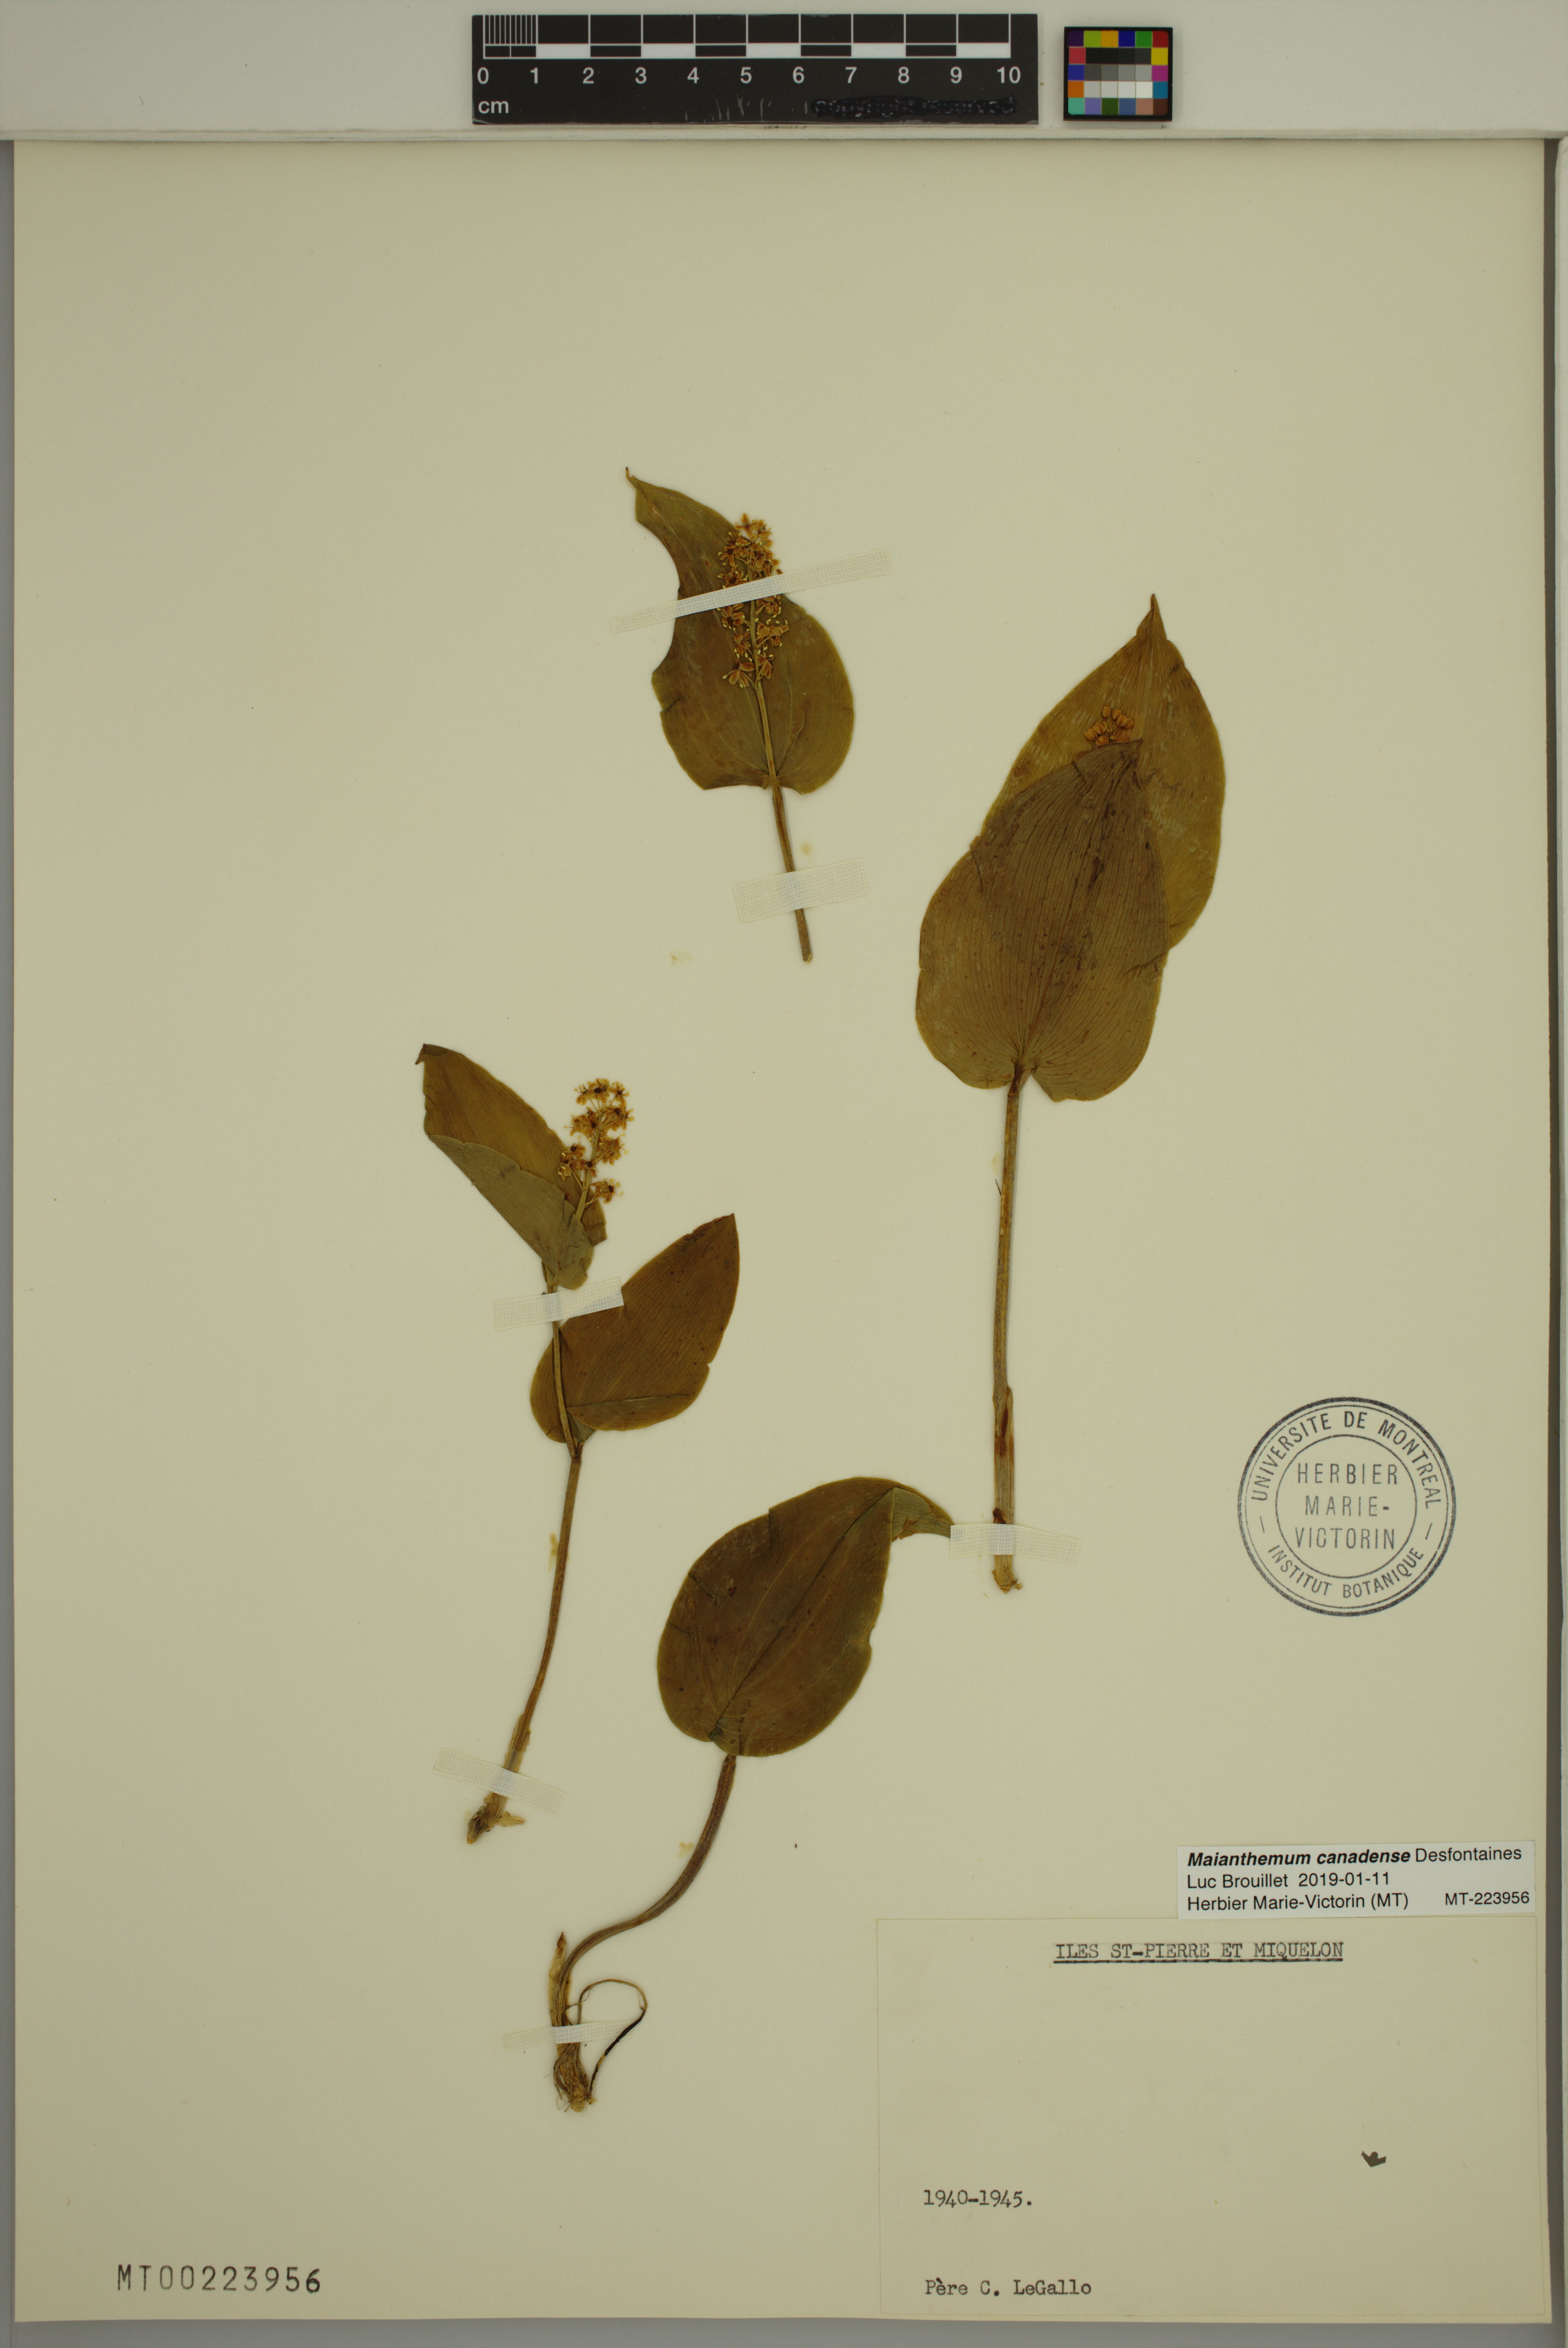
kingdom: Plantae
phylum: Tracheophyta
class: Liliopsida
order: Asparagales
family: Asparagaceae
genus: Maianthemum
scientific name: Maianthemum canadense
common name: False lily-of-the-valley
